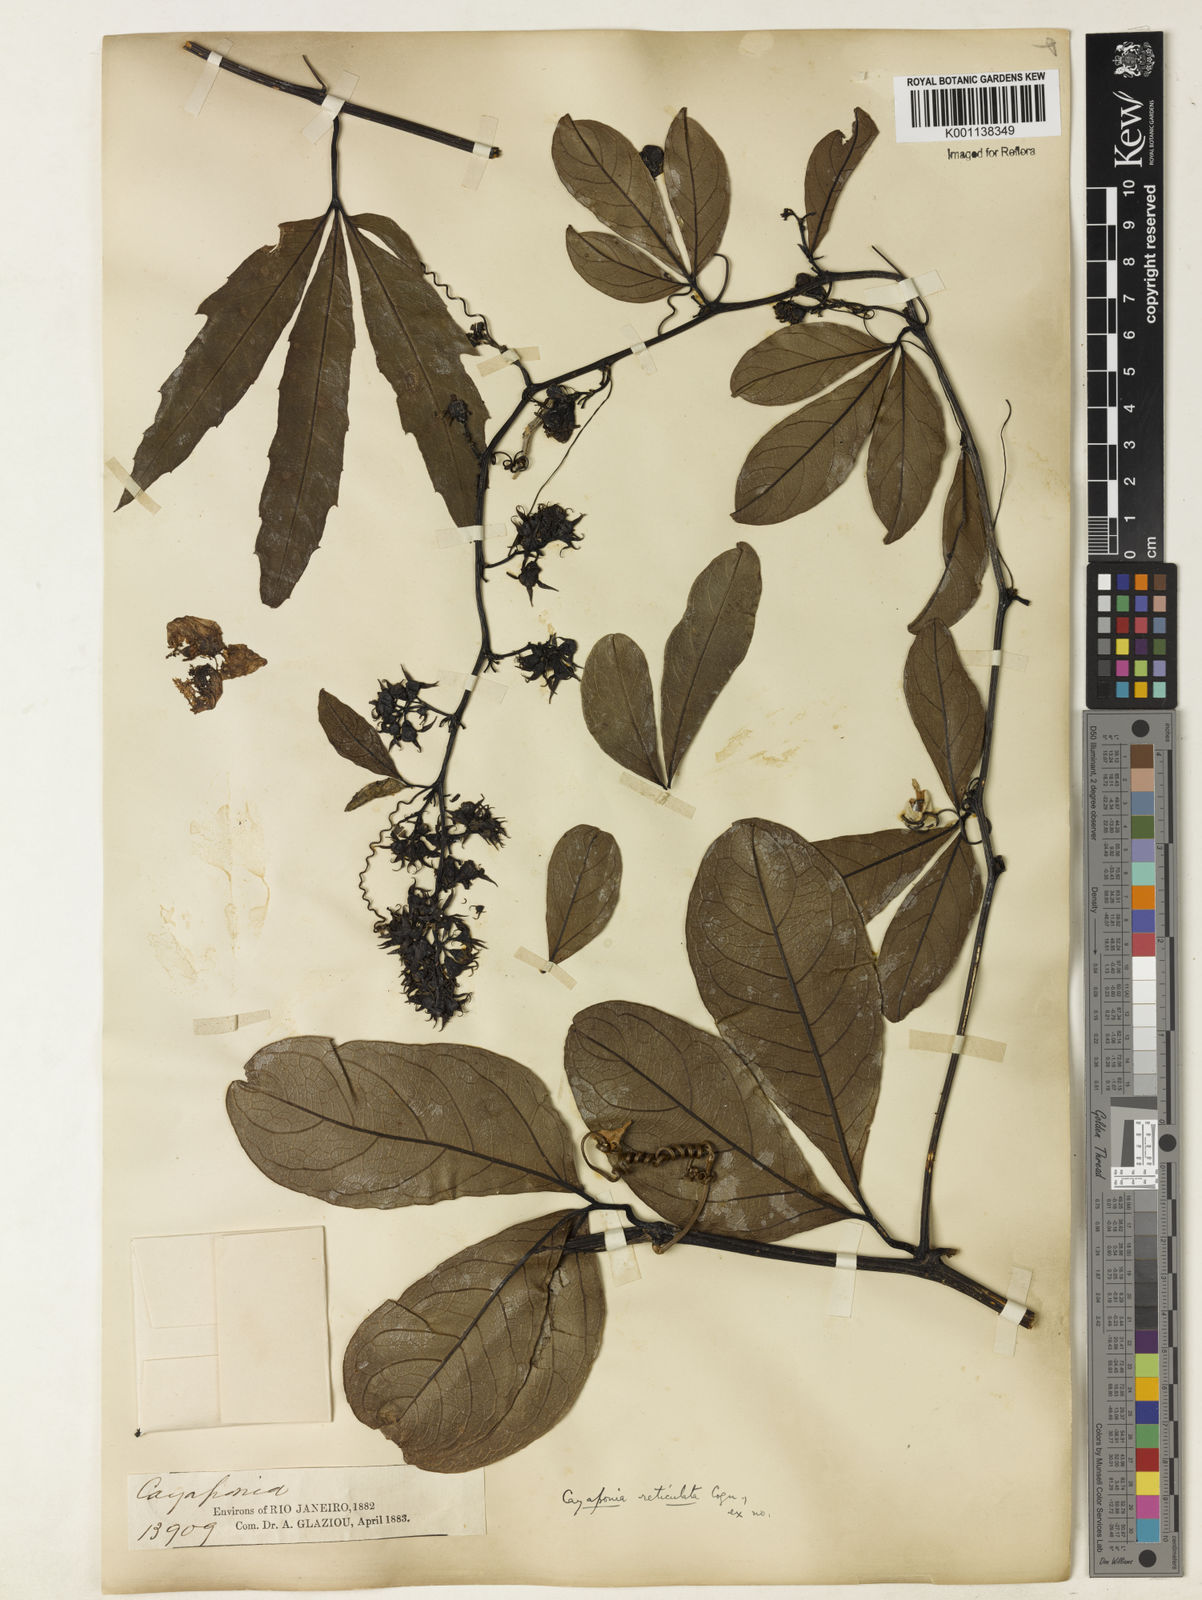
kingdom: Plantae
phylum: Tracheophyta
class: Magnoliopsida
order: Cucurbitales
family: Cucurbitaceae
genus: Cayaponia
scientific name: Cayaponia longifolia
